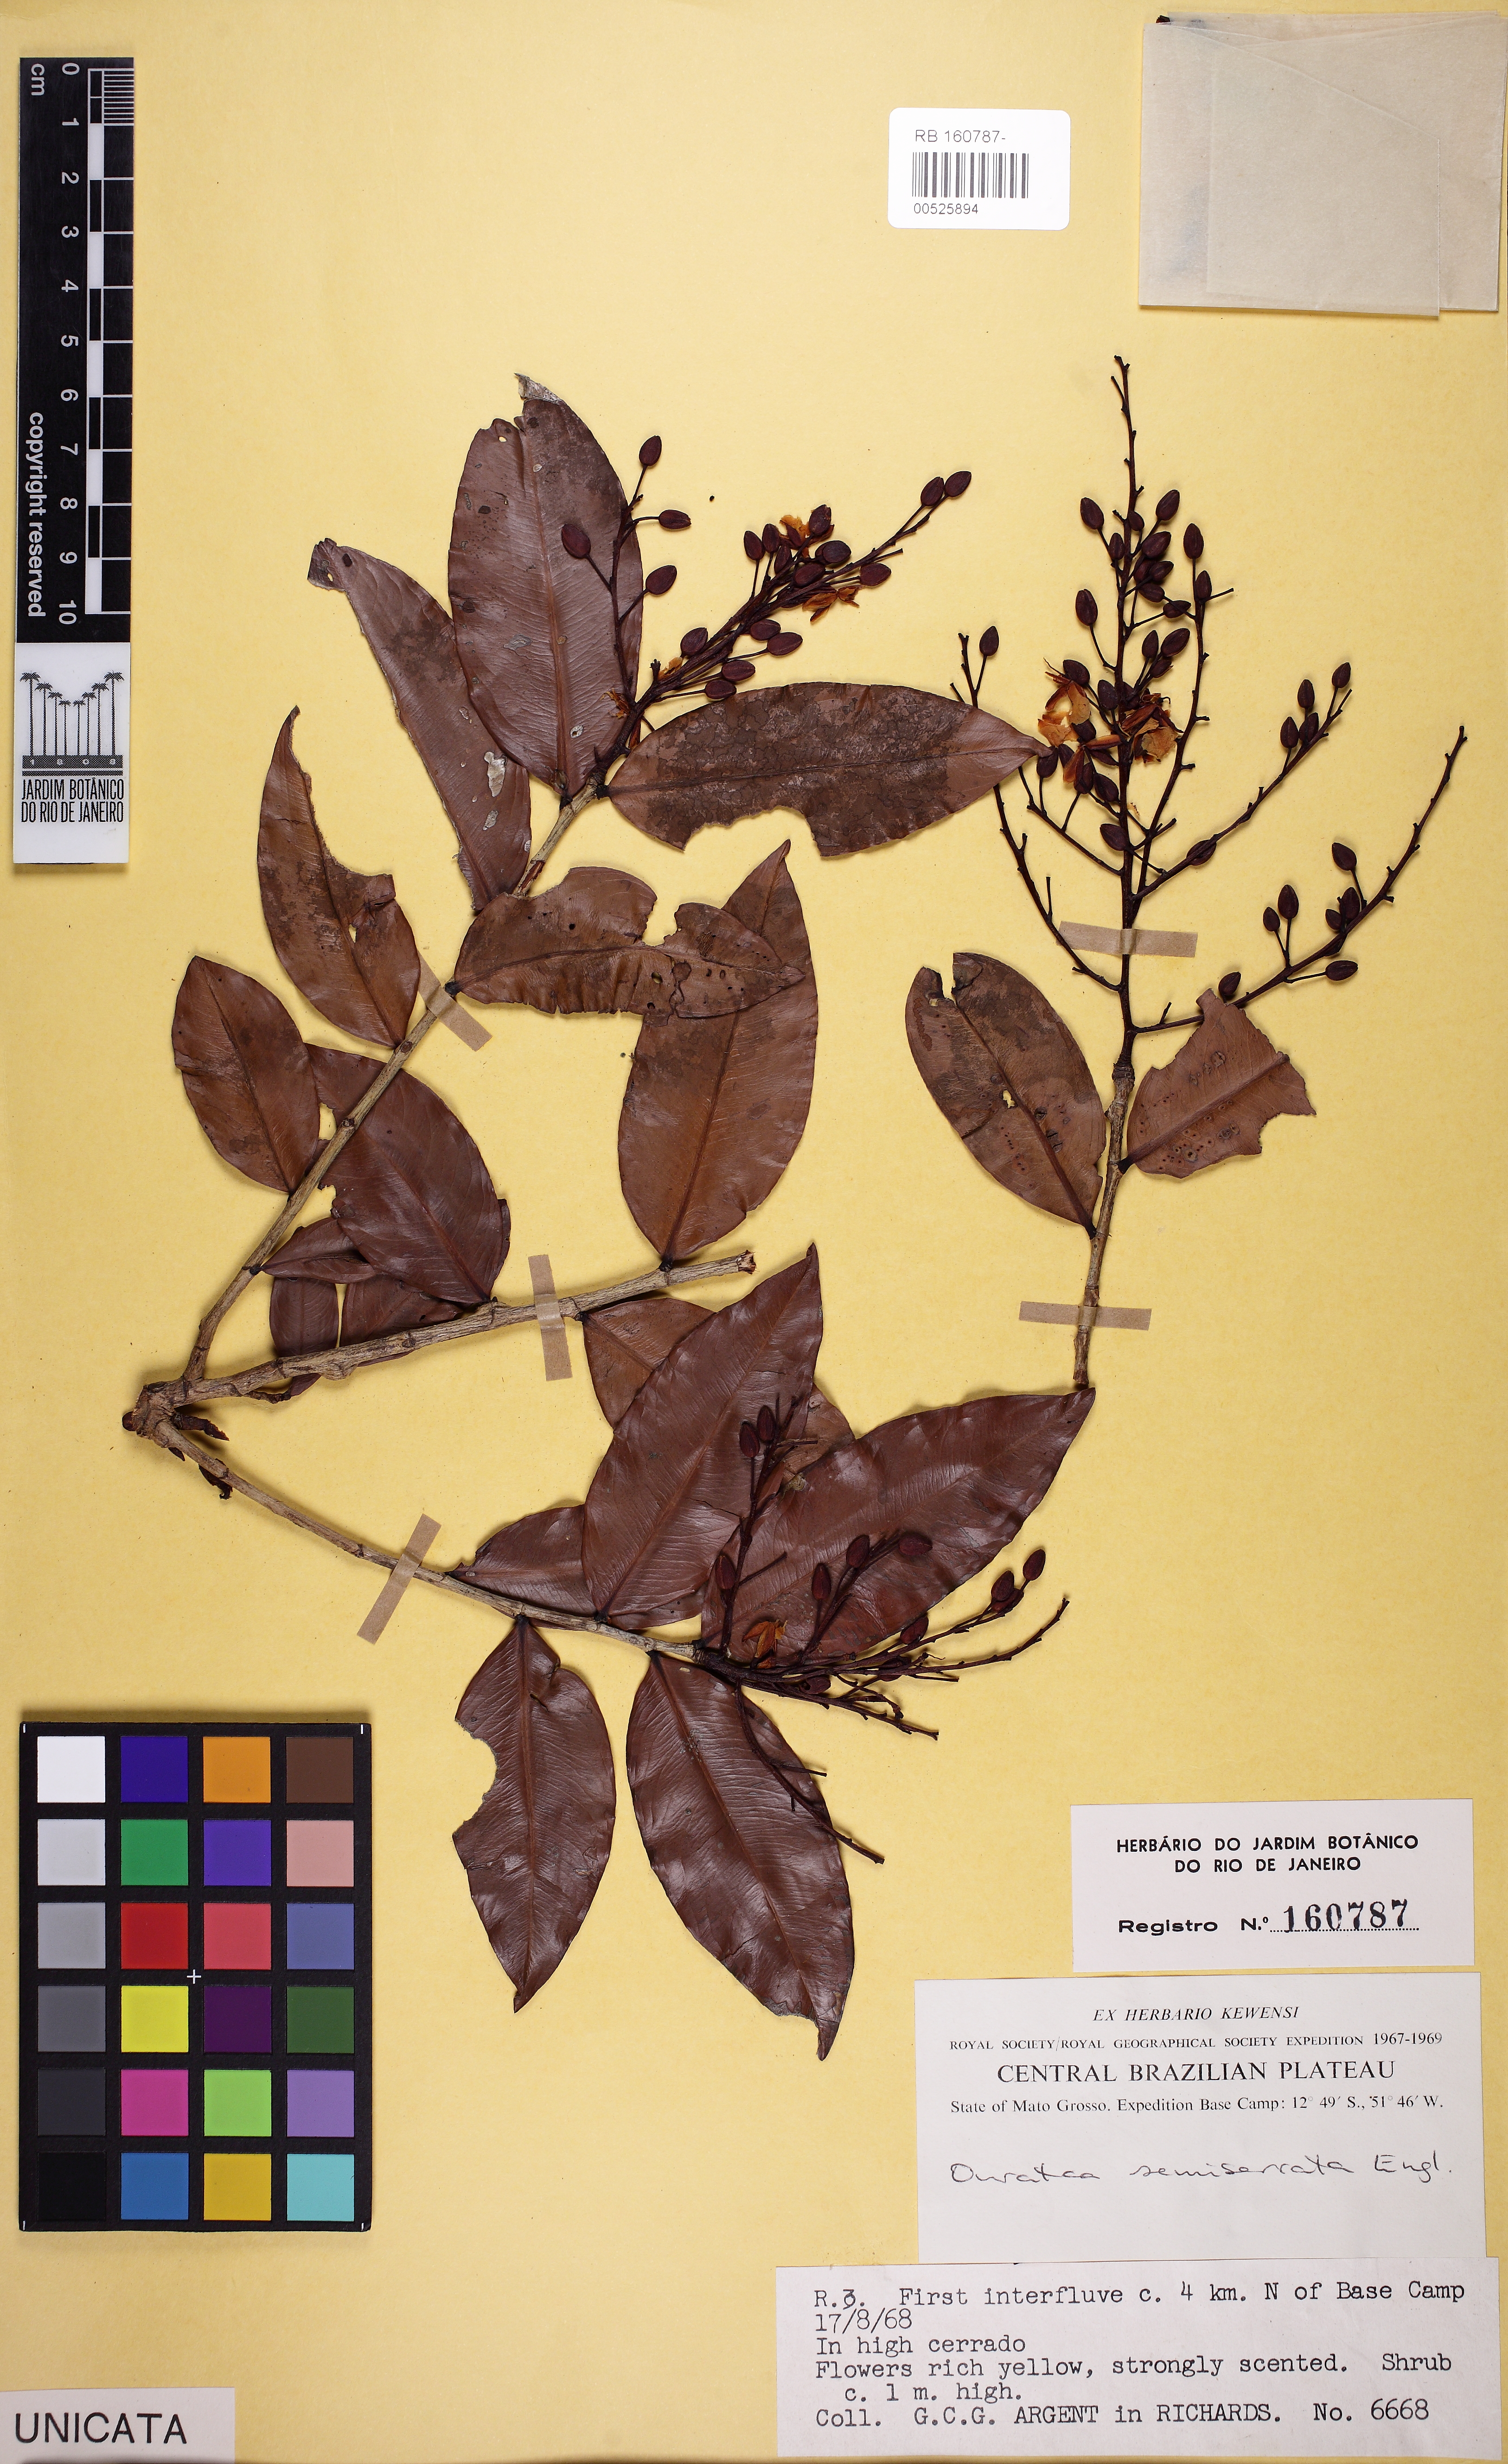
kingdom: Plantae
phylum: Tracheophyta
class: Magnoliopsida
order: Malpighiales
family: Ochnaceae
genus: Ouratea
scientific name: Ouratea semiserrata
